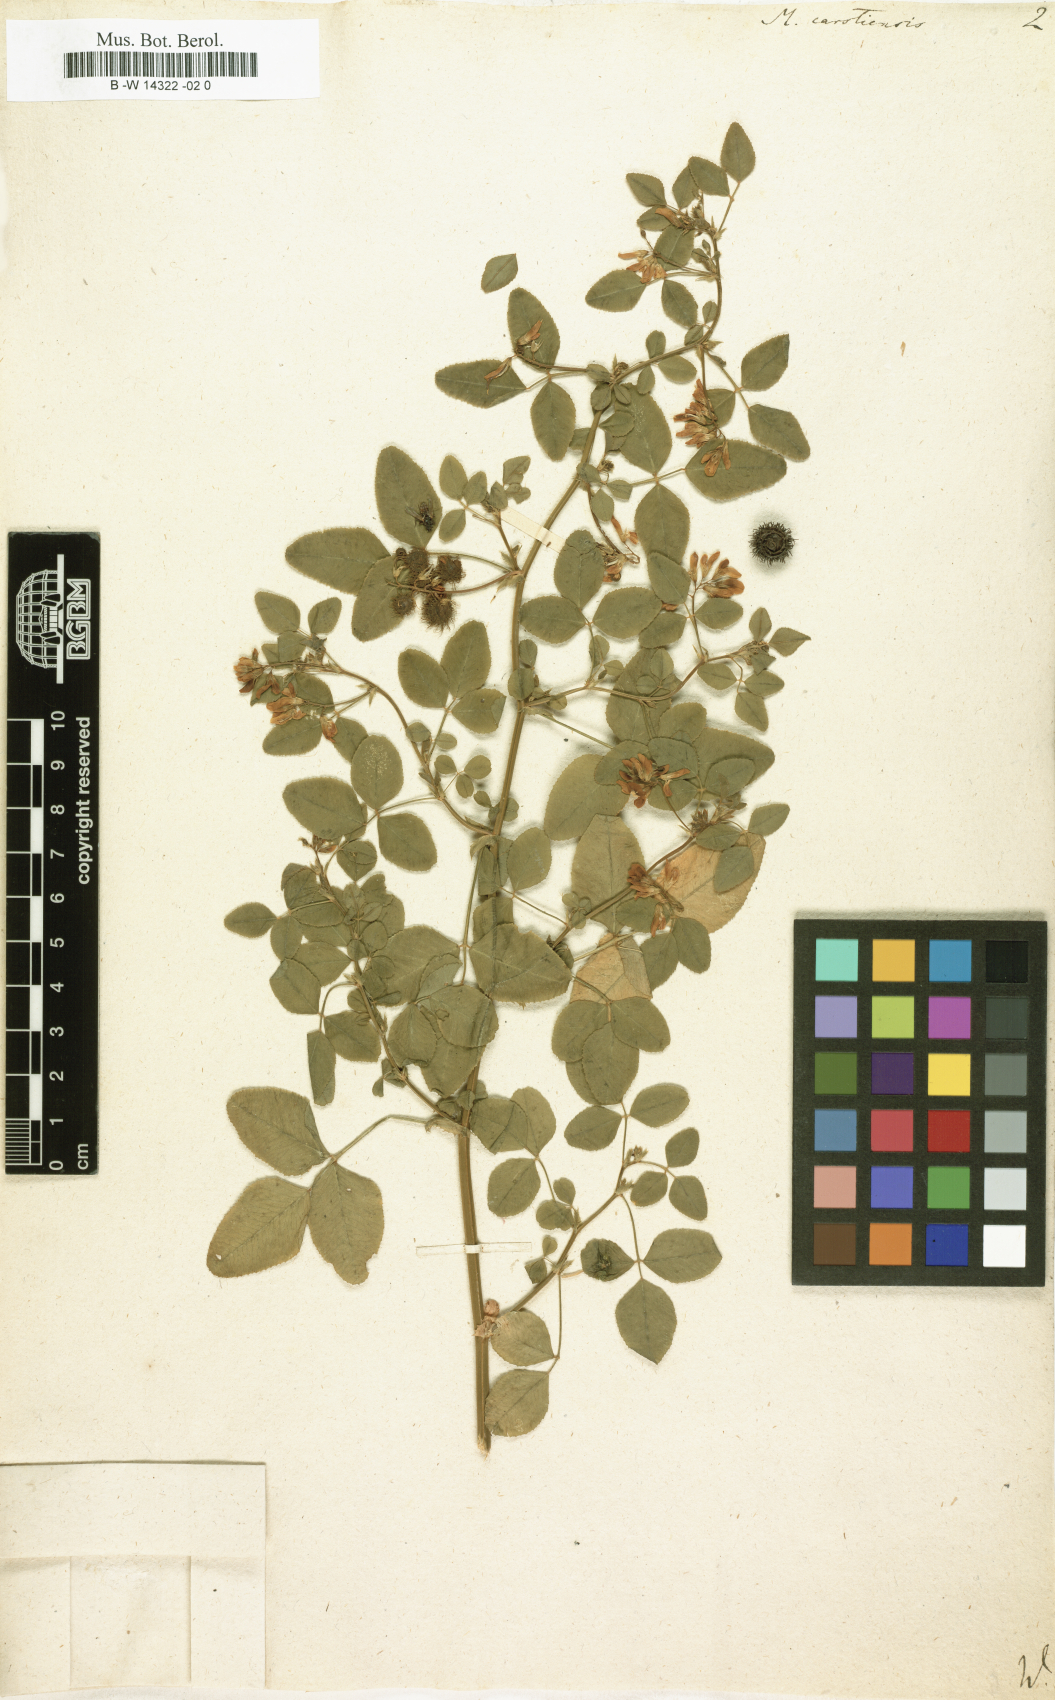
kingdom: Plantae
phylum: Tracheophyta
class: Magnoliopsida
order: Fabales
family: Fabaceae
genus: Medicago
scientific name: Medicago carstiensis
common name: Creeping-rooted medic
